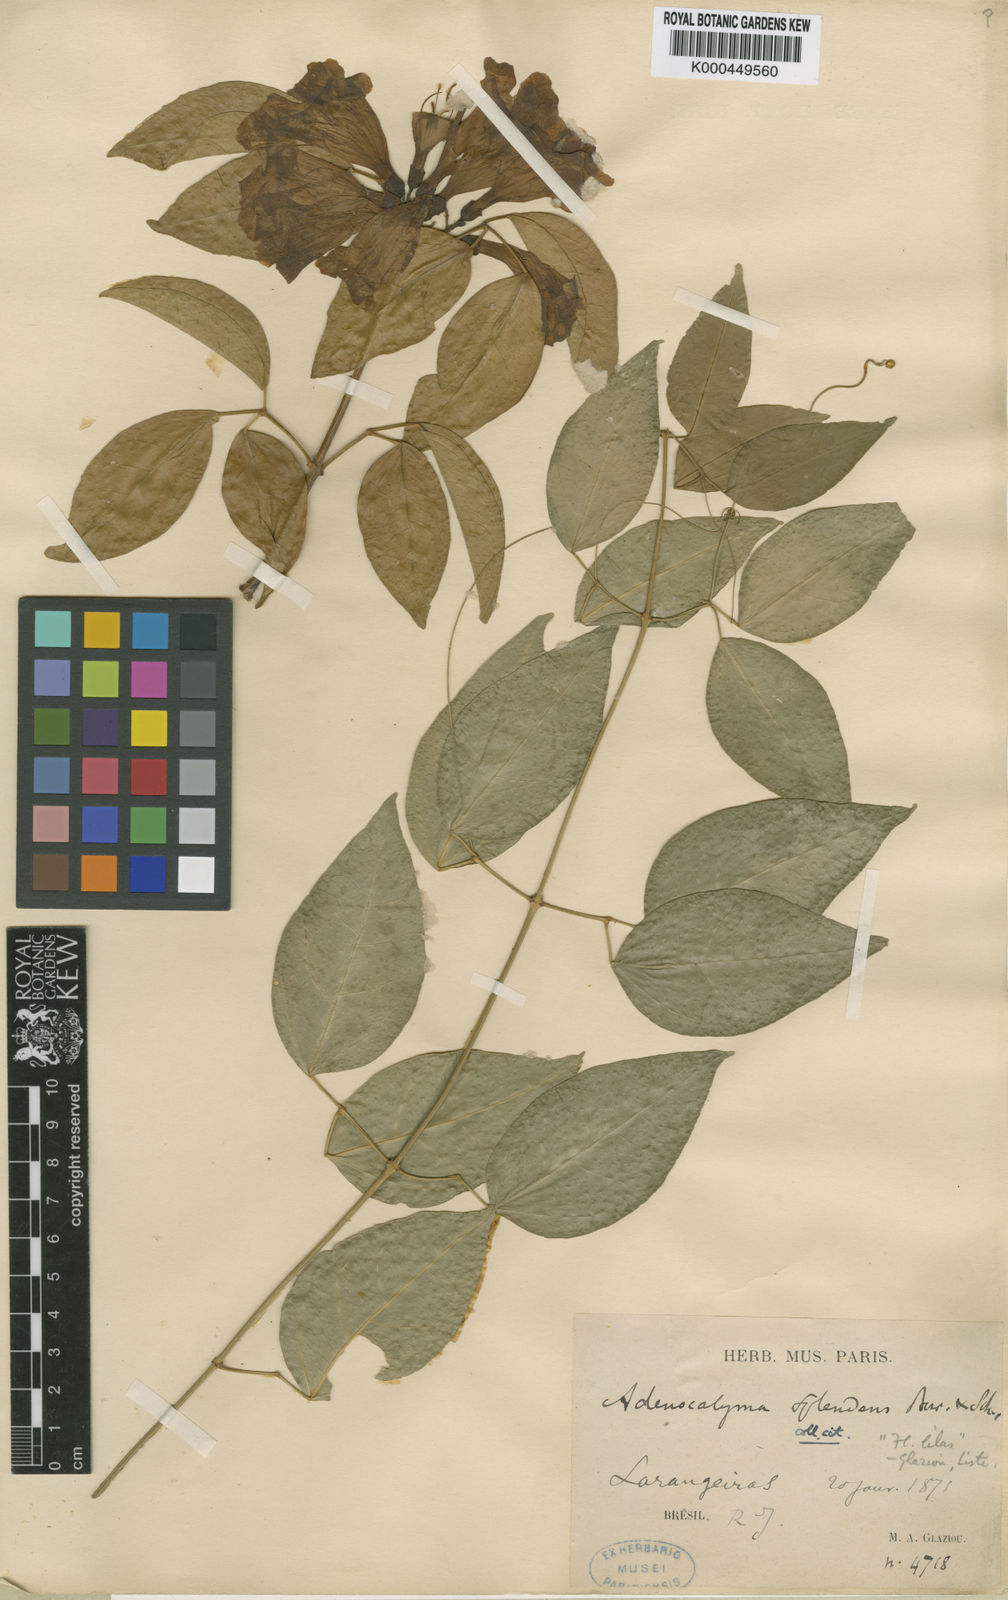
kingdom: Plantae
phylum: Tracheophyta
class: Magnoliopsida
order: Lamiales
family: Bignoniaceae
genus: Mansoa
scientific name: Mansoa difficilis
